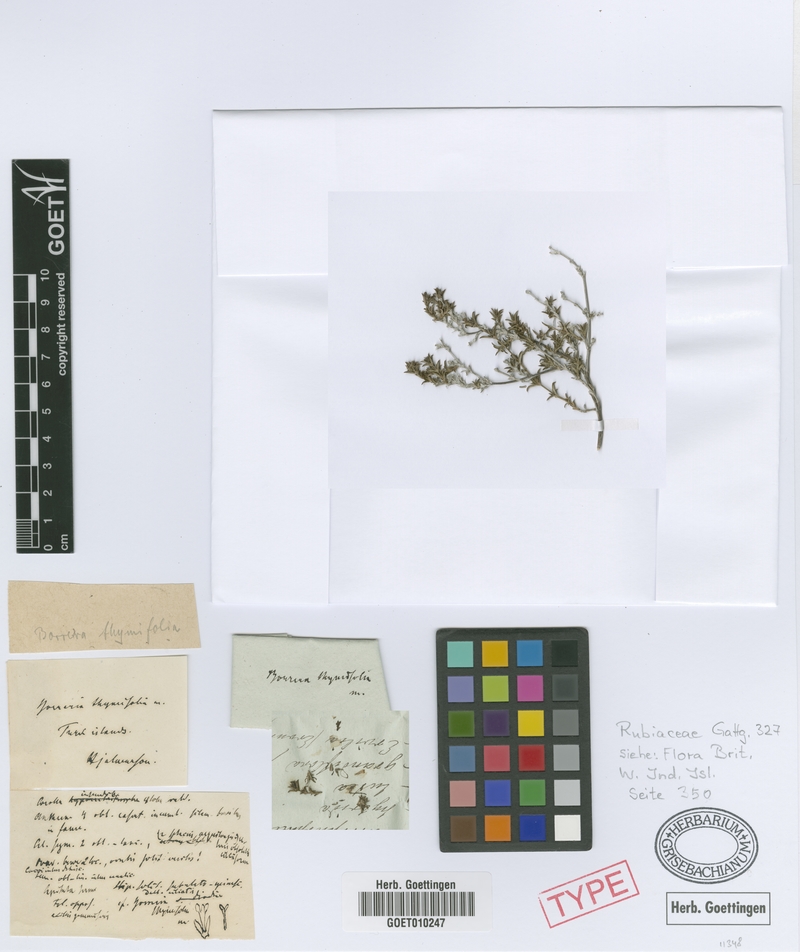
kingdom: Plantae
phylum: Tracheophyta
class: Magnoliopsida
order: Gentianales
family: Rubiaceae
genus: Spermacoce
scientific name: Spermacoce thymifolia
